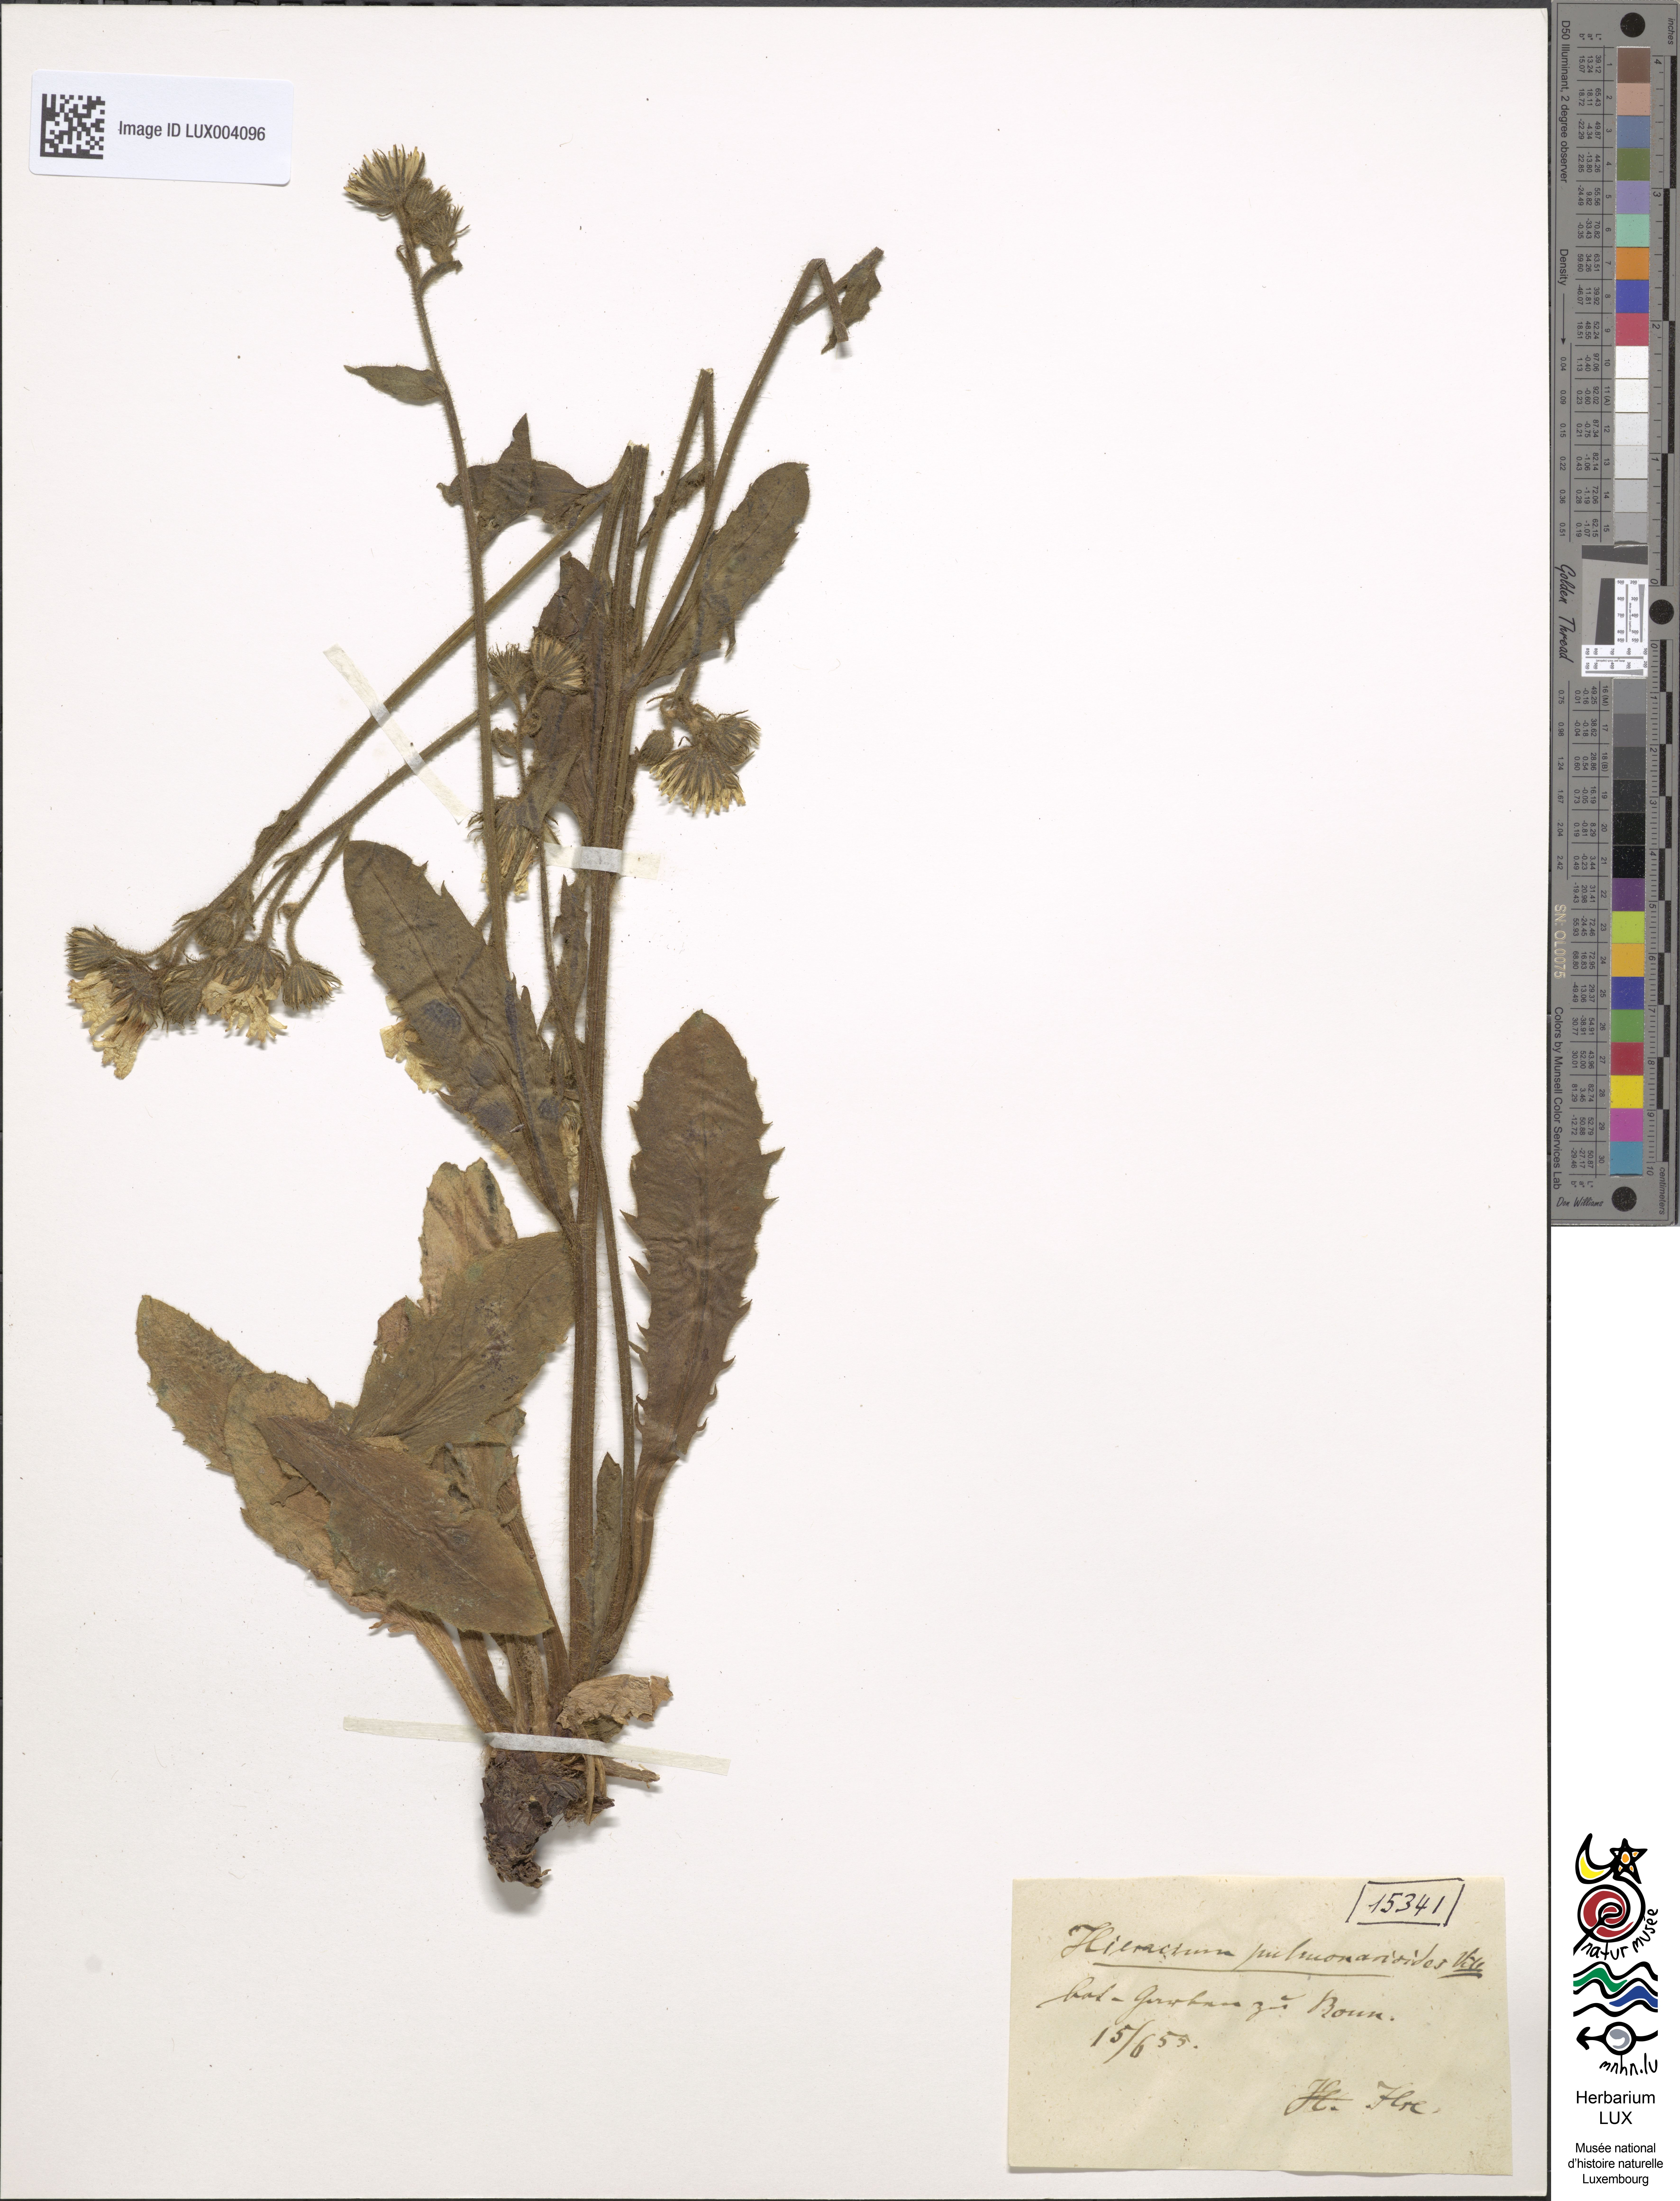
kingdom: Plantae
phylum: Tracheophyta
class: Magnoliopsida
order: Asterales
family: Asteraceae
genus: Hieracium
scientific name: Hieracium pulmonarioides
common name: Wall hawkweed
